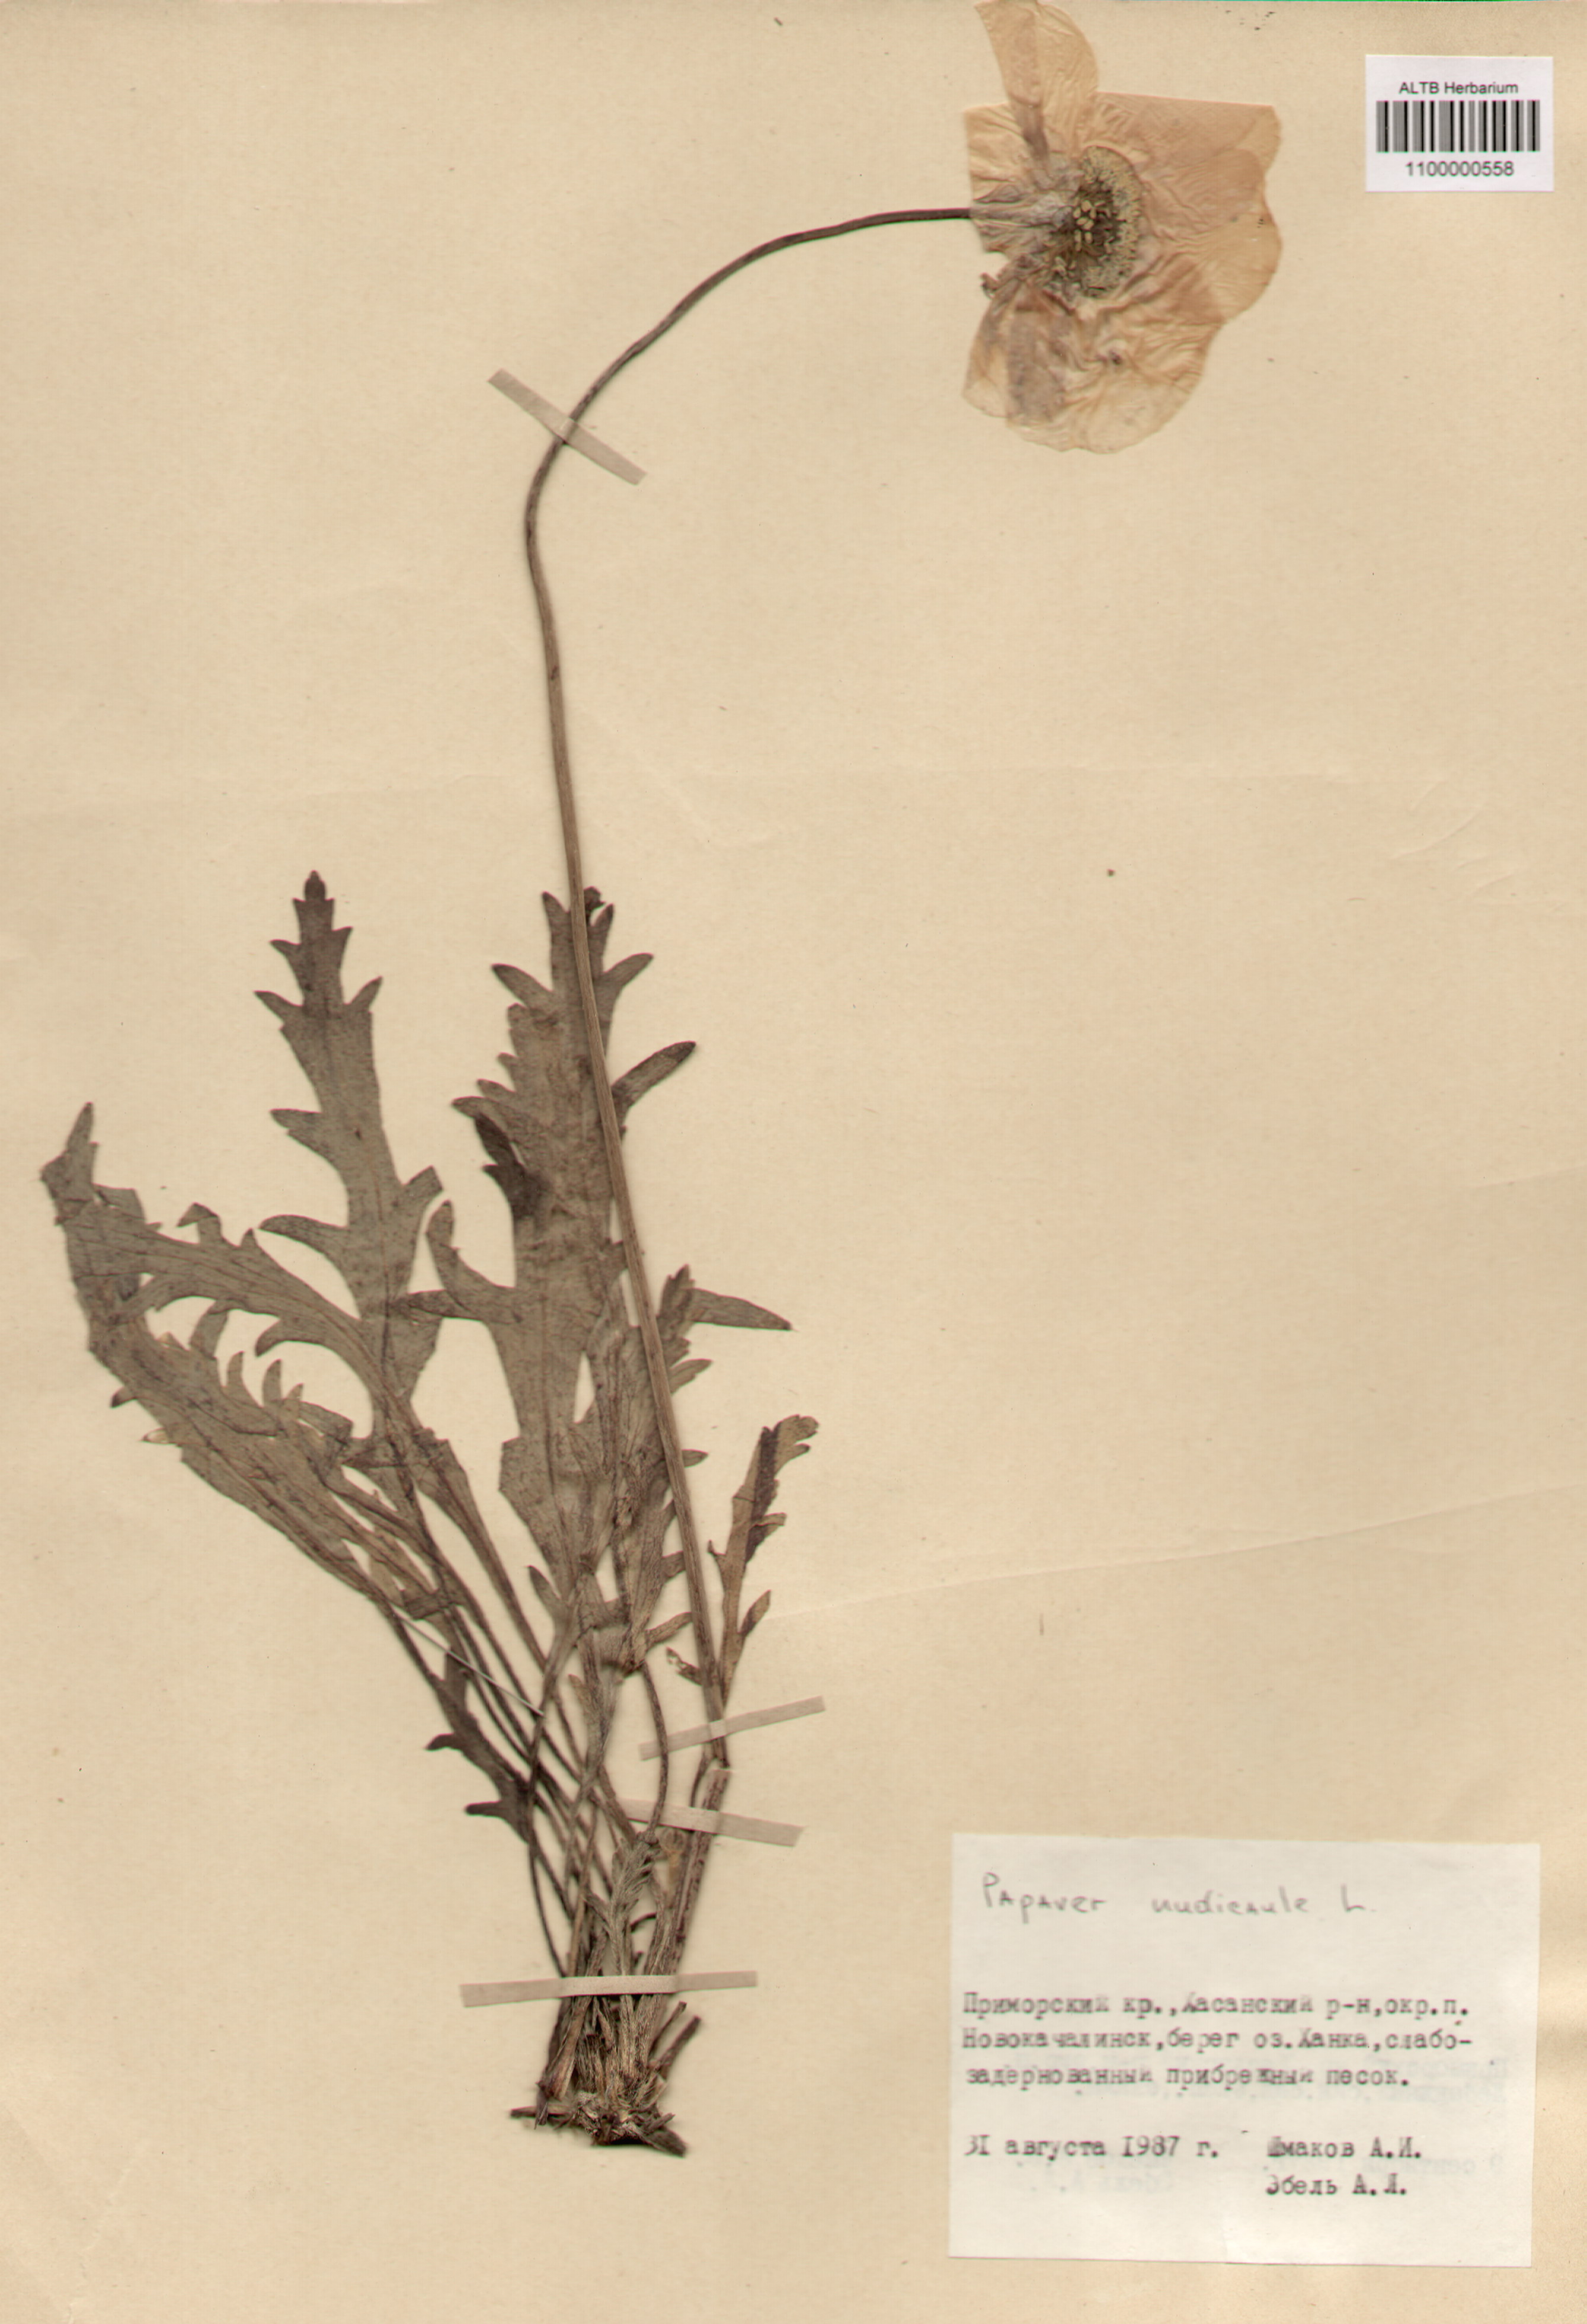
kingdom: Plantae
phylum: Tracheophyta
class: Magnoliopsida
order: Ranunculales
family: Papaveraceae
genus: Papaver
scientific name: Papaver nudicaule
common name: Arctic poppy
